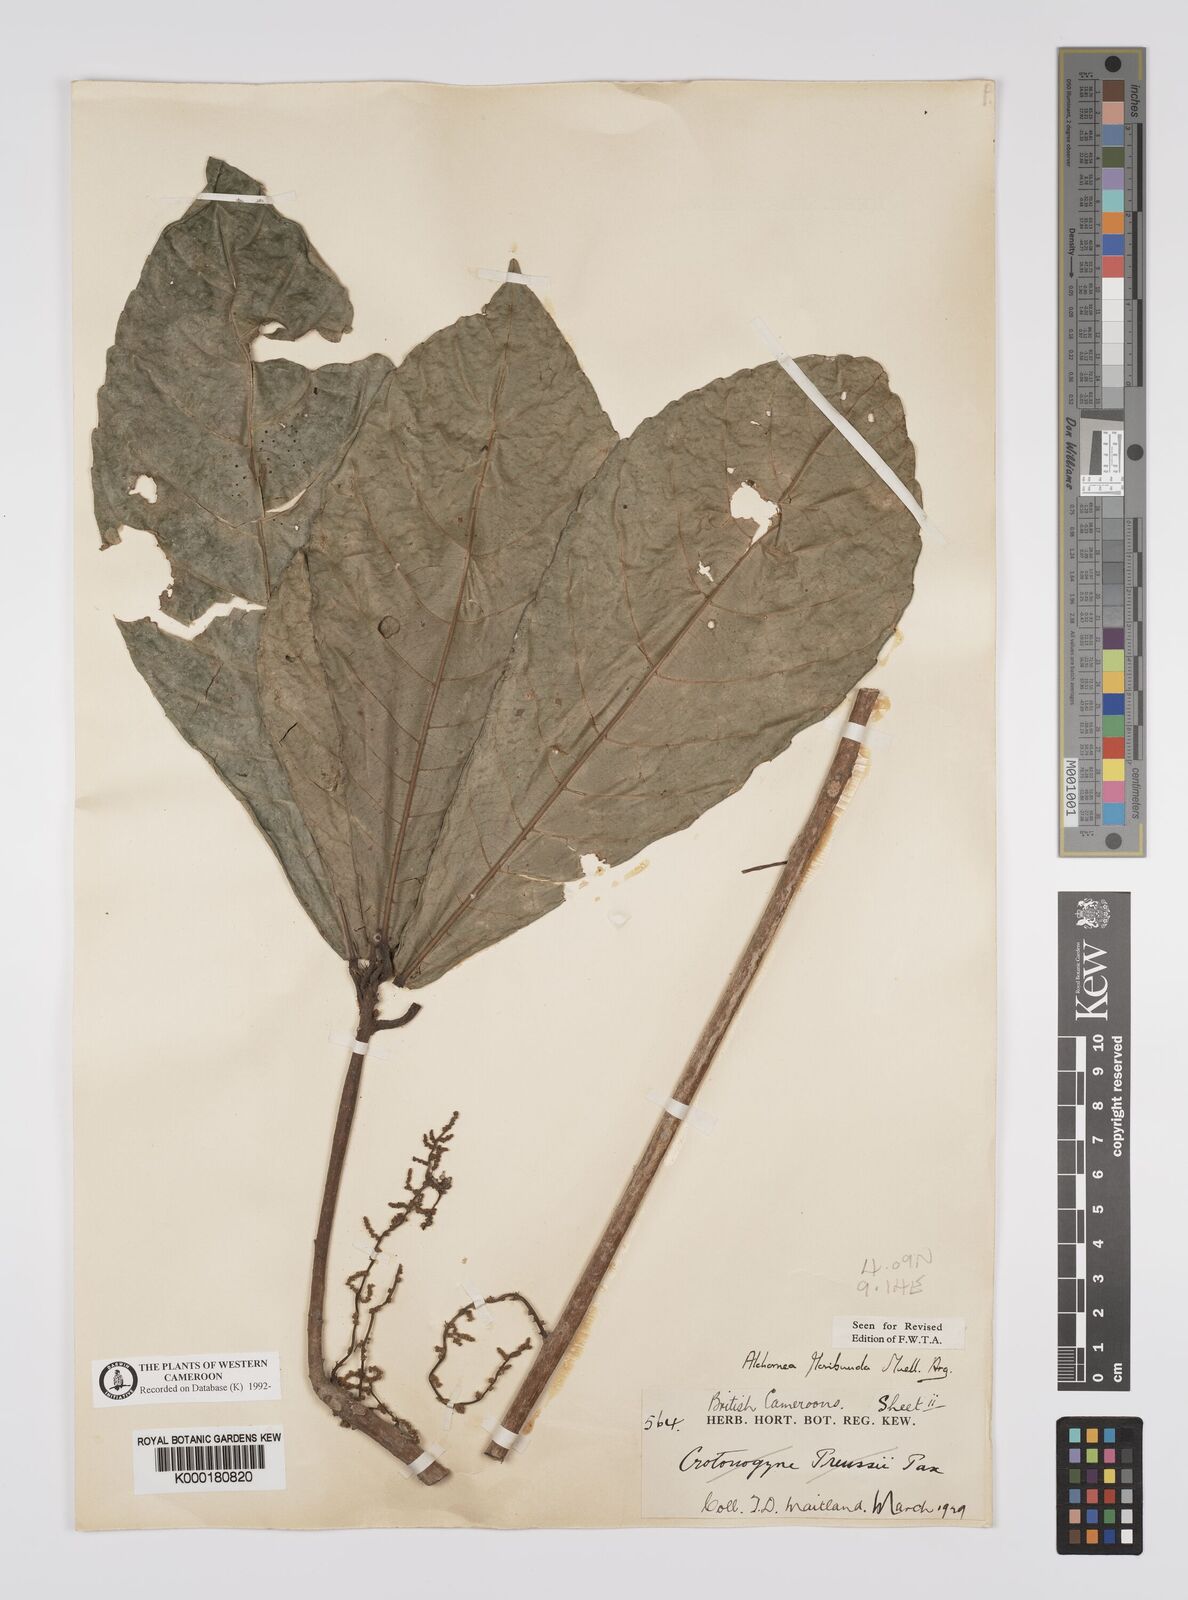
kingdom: Plantae
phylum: Tracheophyta
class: Magnoliopsida
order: Malpighiales
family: Euphorbiaceae
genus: Alchornea
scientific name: Alchornea
